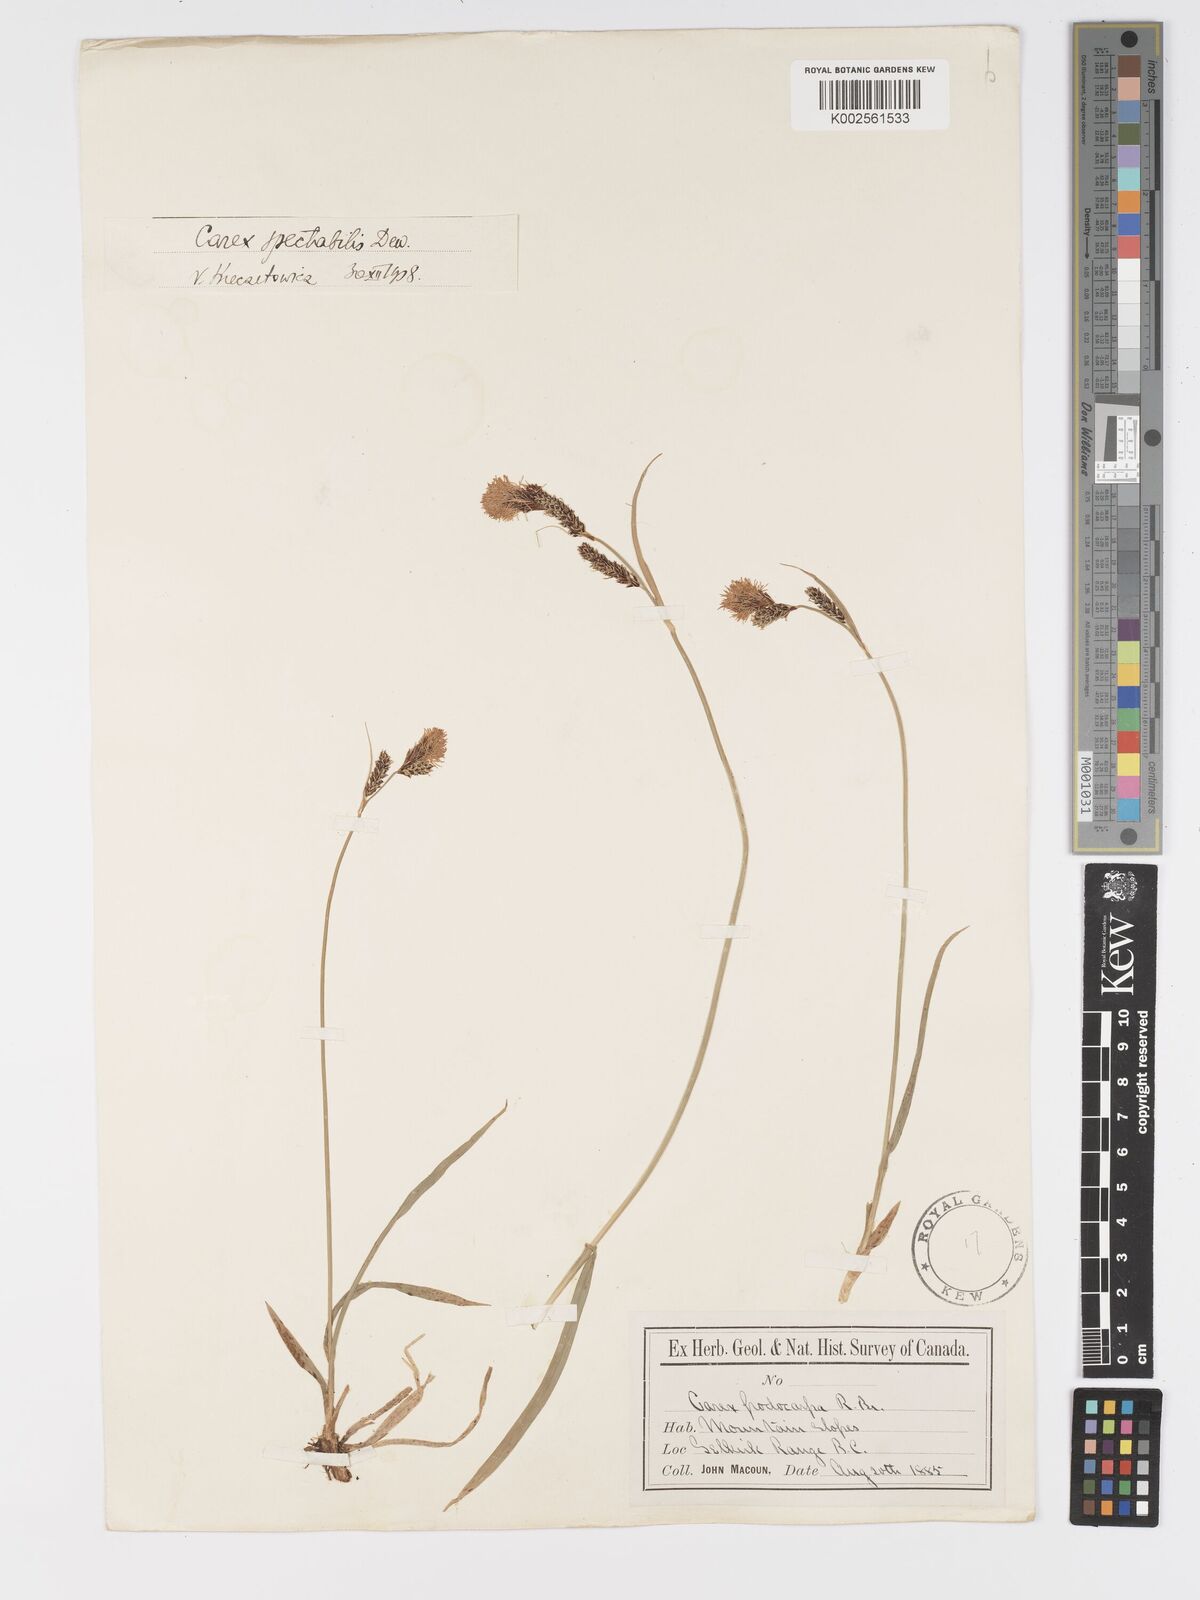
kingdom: Plantae
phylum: Tracheophyta
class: Liliopsida
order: Poales
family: Cyperaceae
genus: Carex
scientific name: Carex spectabilis
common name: Northwestern showy sedge
